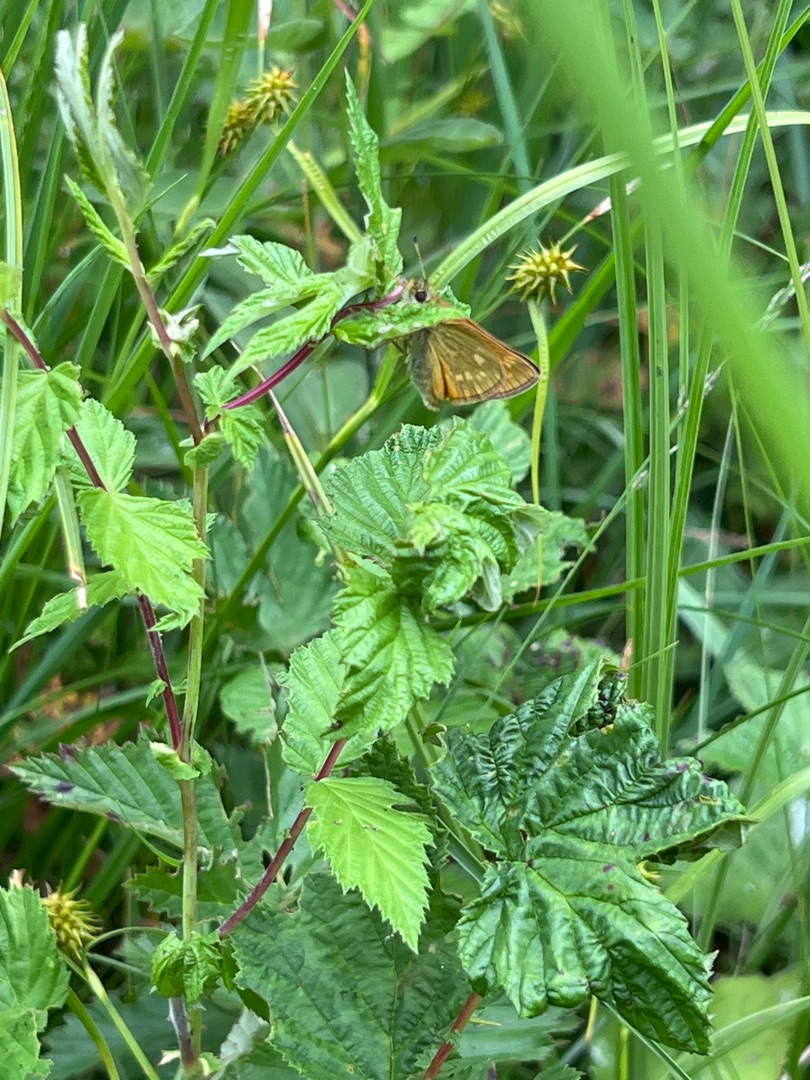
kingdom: Animalia
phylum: Arthropoda
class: Insecta
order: Lepidoptera
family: Hesperiidae
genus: Ochlodes
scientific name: Ochlodes venata
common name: Stor bredpande
